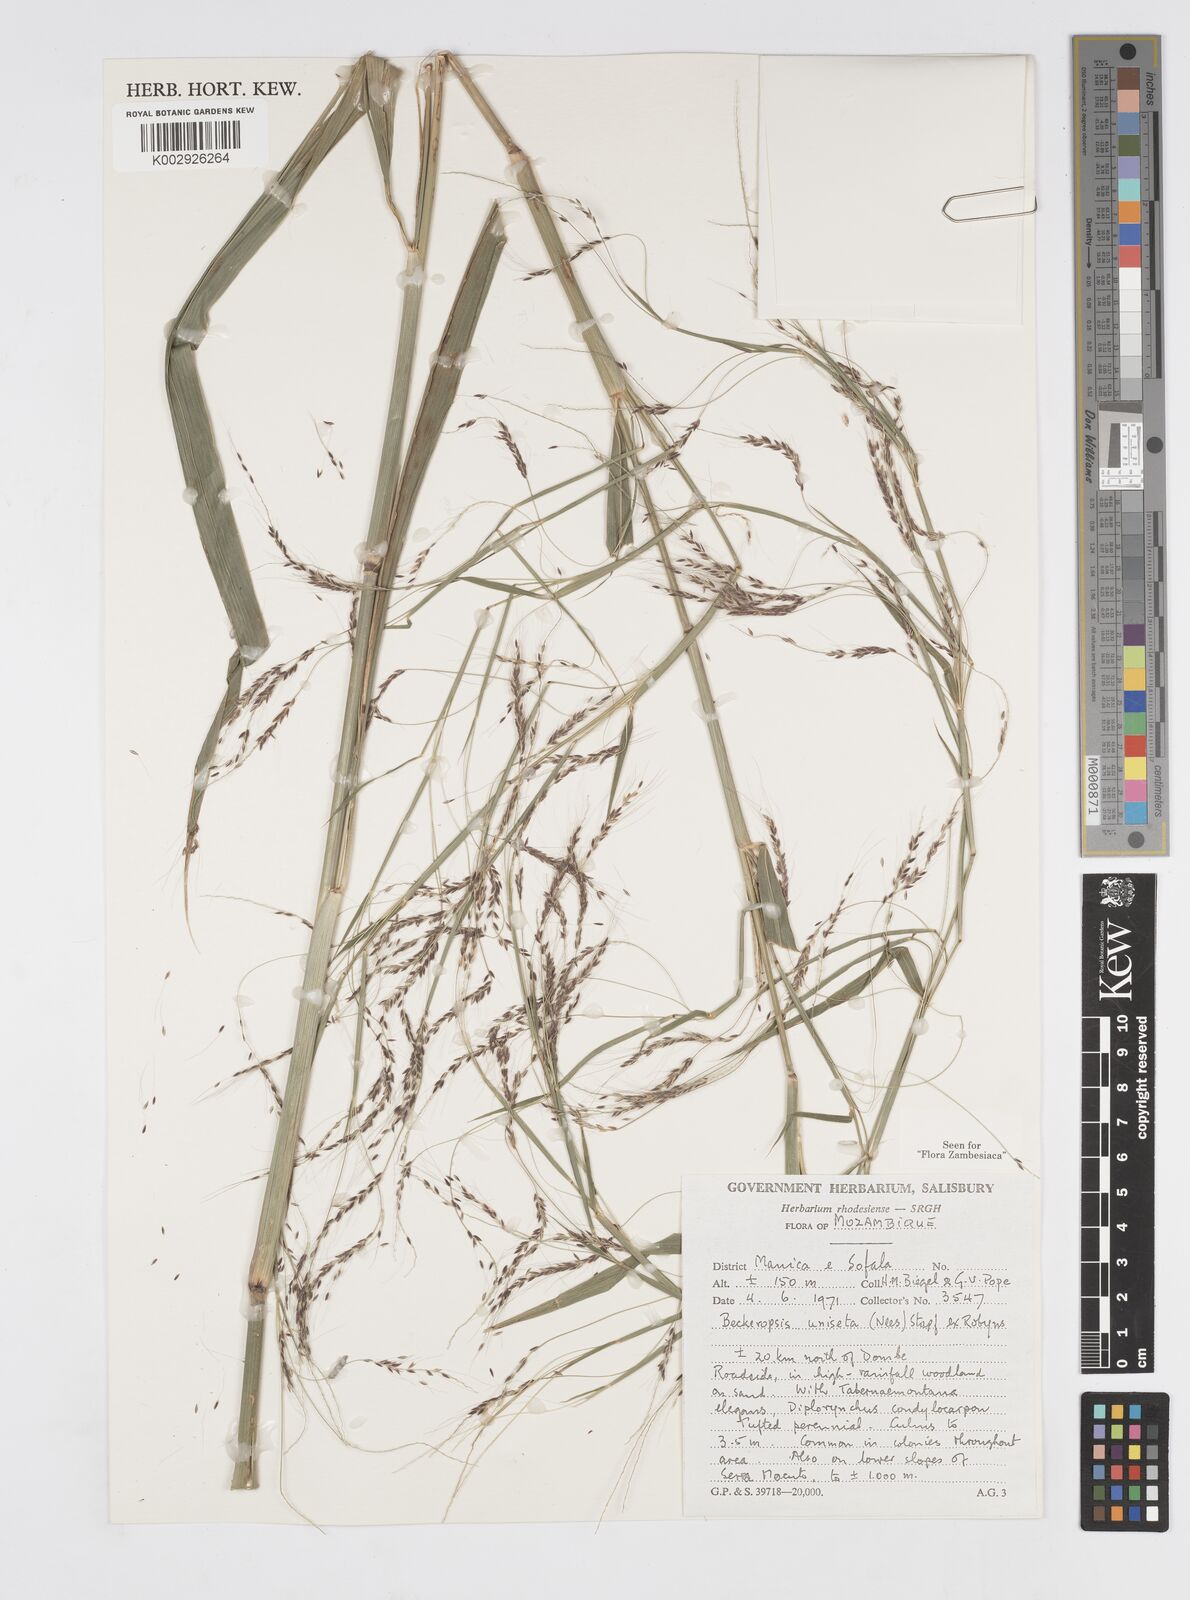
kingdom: Plantae
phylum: Tracheophyta
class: Liliopsida
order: Poales
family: Poaceae
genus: Cenchrus
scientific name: Cenchrus unisetus
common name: Natal grass
